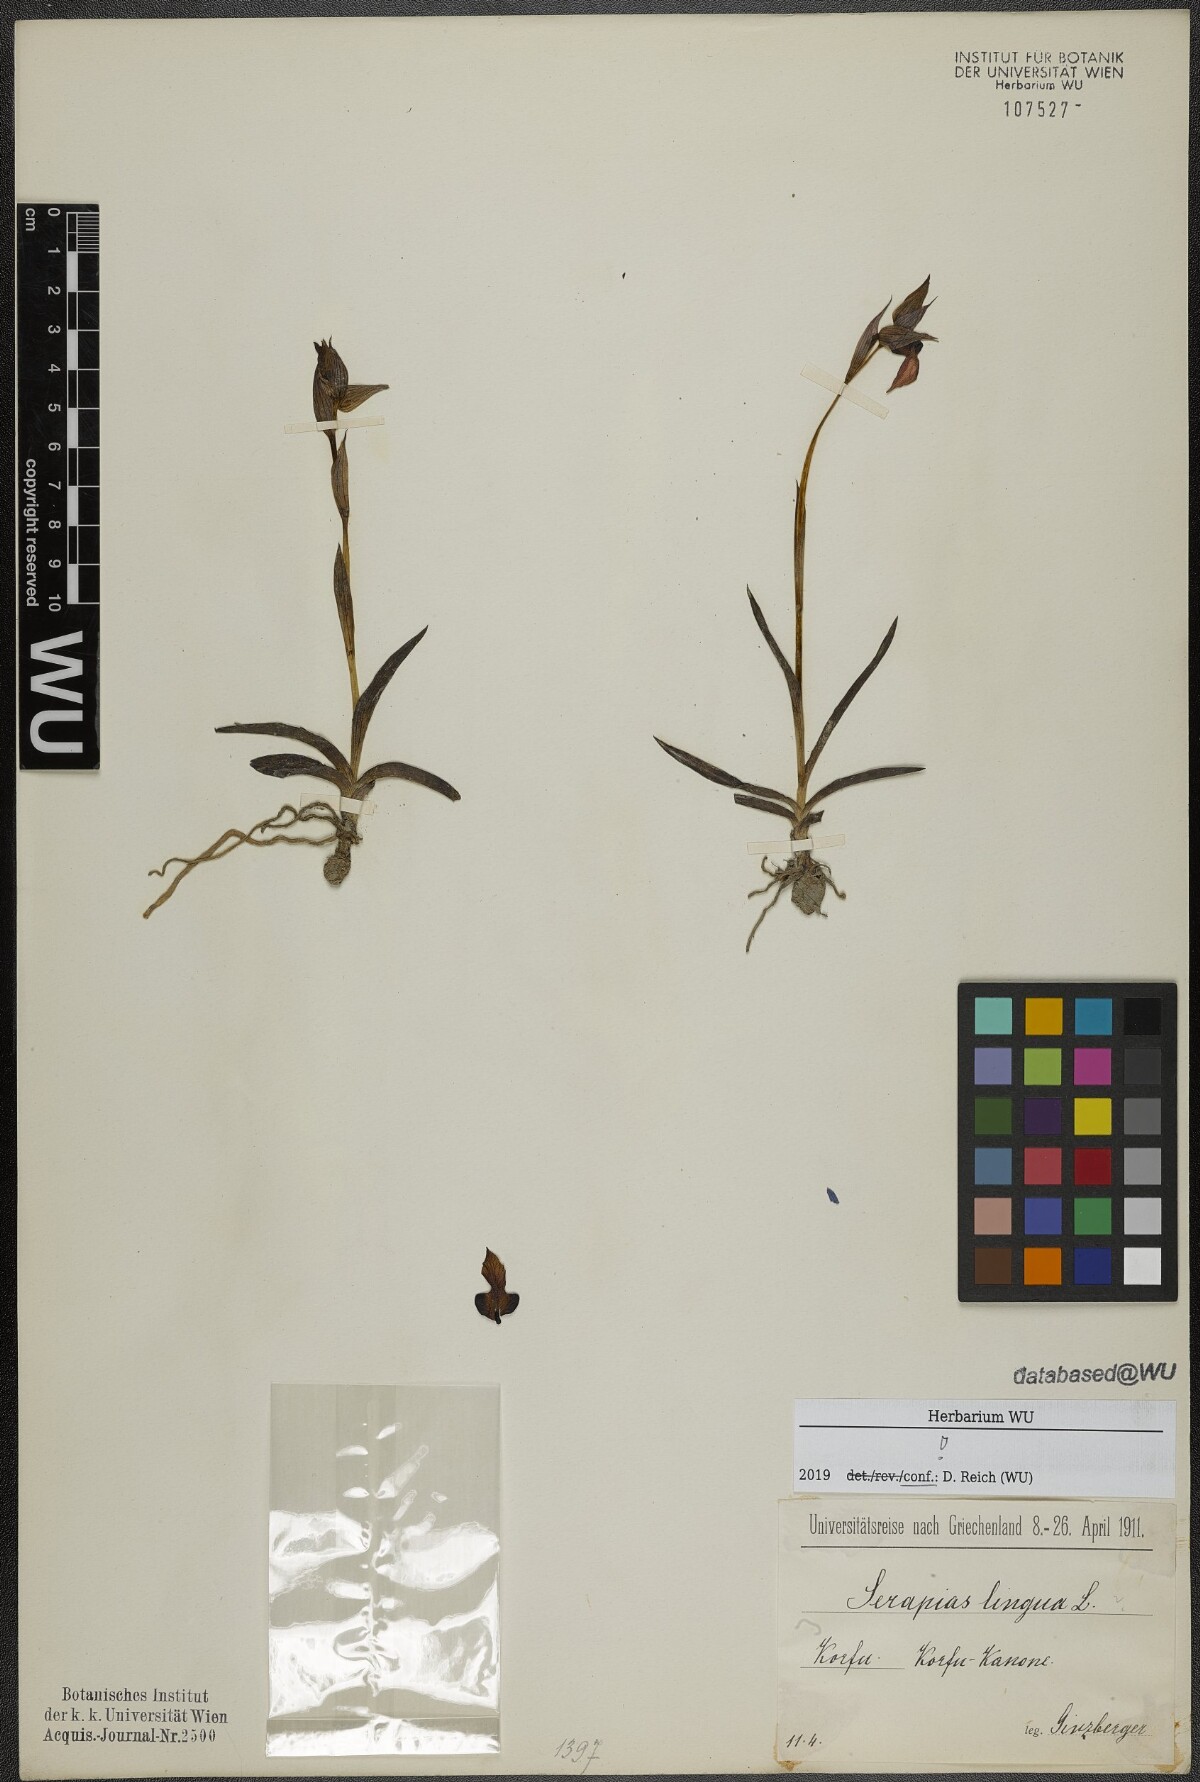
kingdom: Plantae
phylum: Tracheophyta
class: Liliopsida
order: Asparagales
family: Orchidaceae
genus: Serapias
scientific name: Serapias lingua
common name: Tongue-orchid
